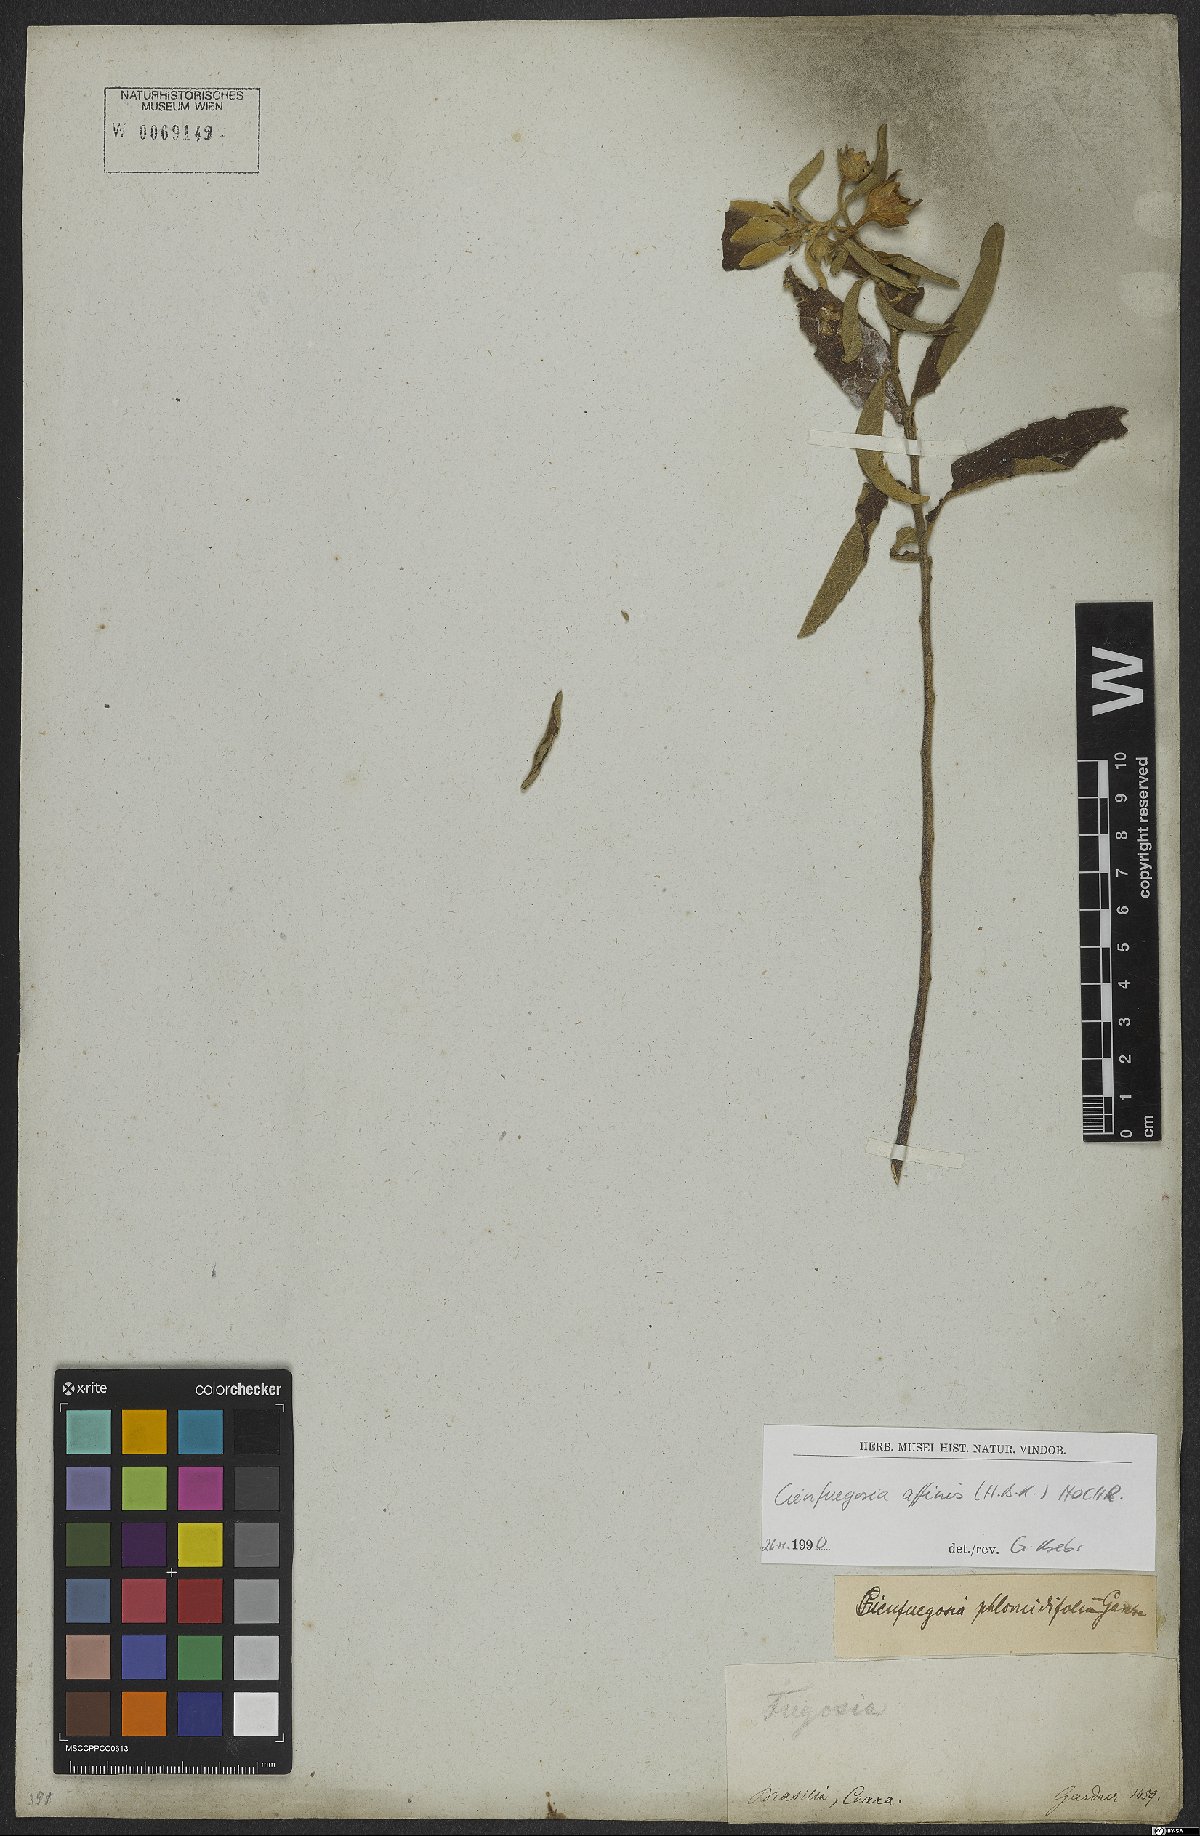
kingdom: Plantae
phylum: Tracheophyta
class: Magnoliopsida
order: Malvales
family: Malvaceae
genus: Cienfuegosia
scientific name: Cienfuegosia affinis
